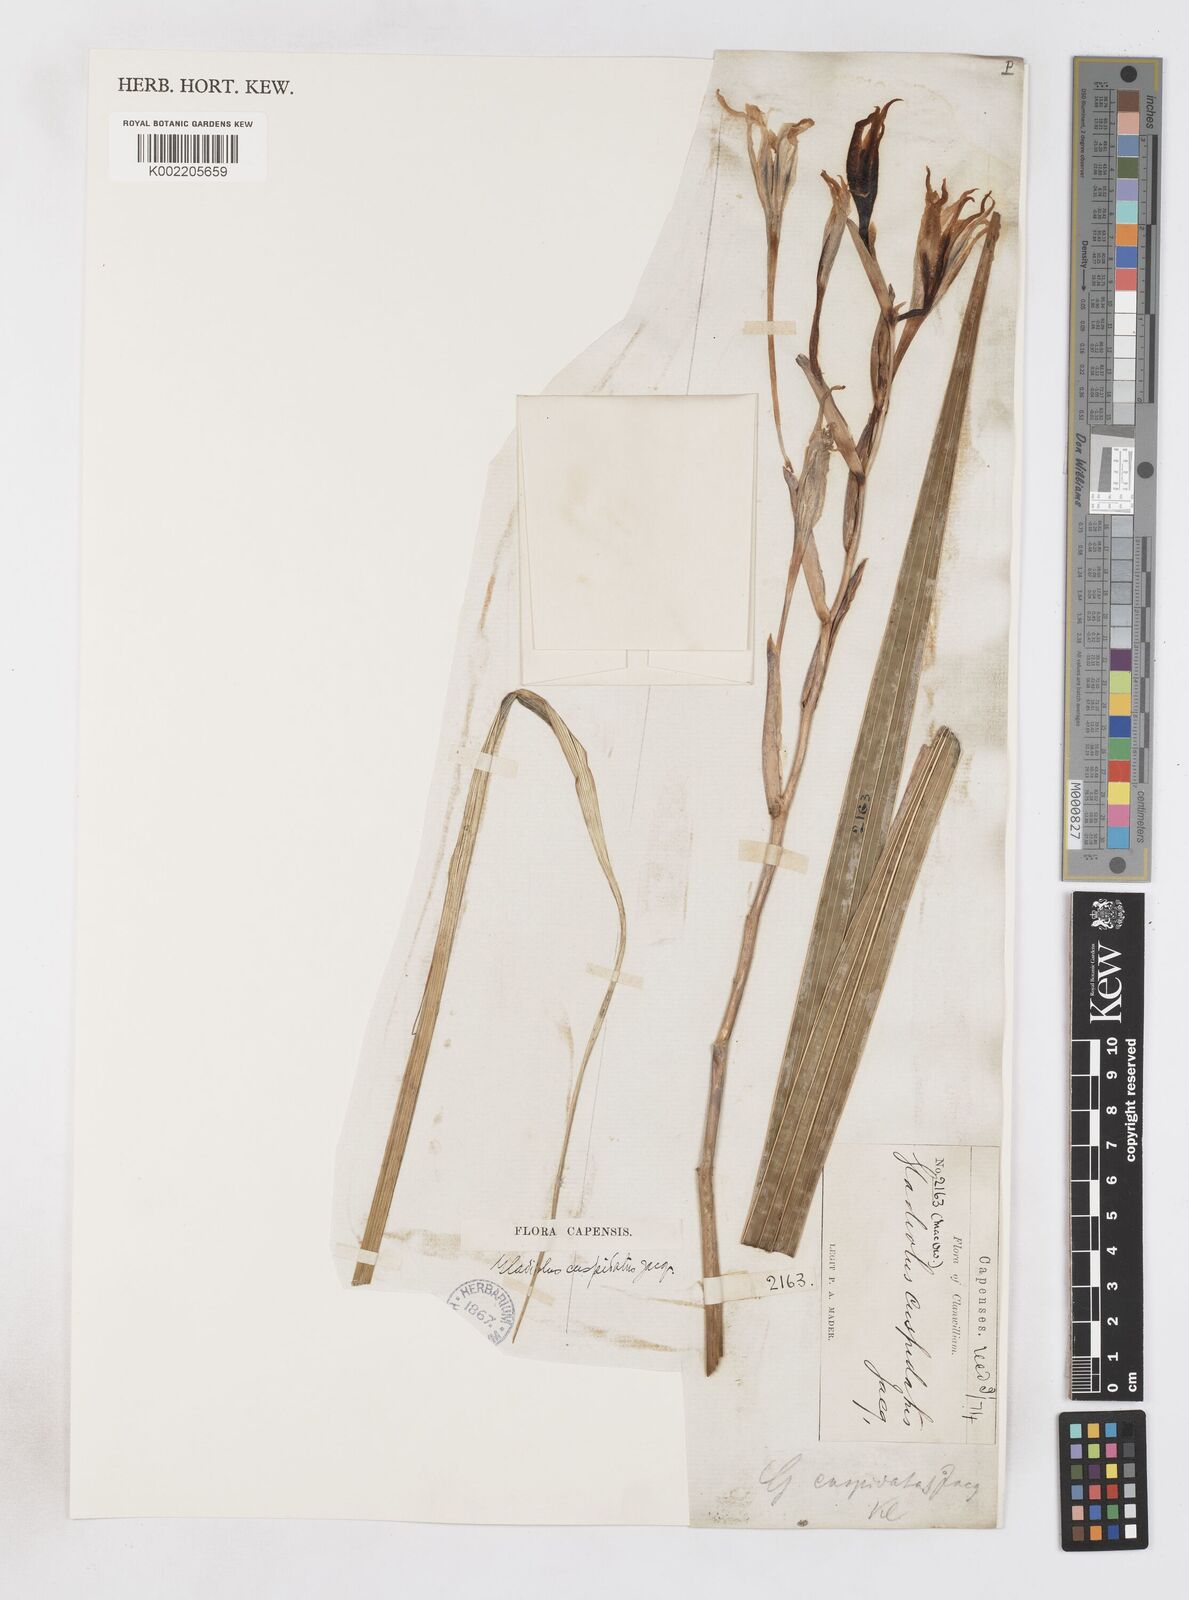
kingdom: Plantae
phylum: Tracheophyta
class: Liliopsida
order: Asparagales
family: Iridaceae
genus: Gladiolus
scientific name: Gladiolus undulatus
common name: Large painted-lady
